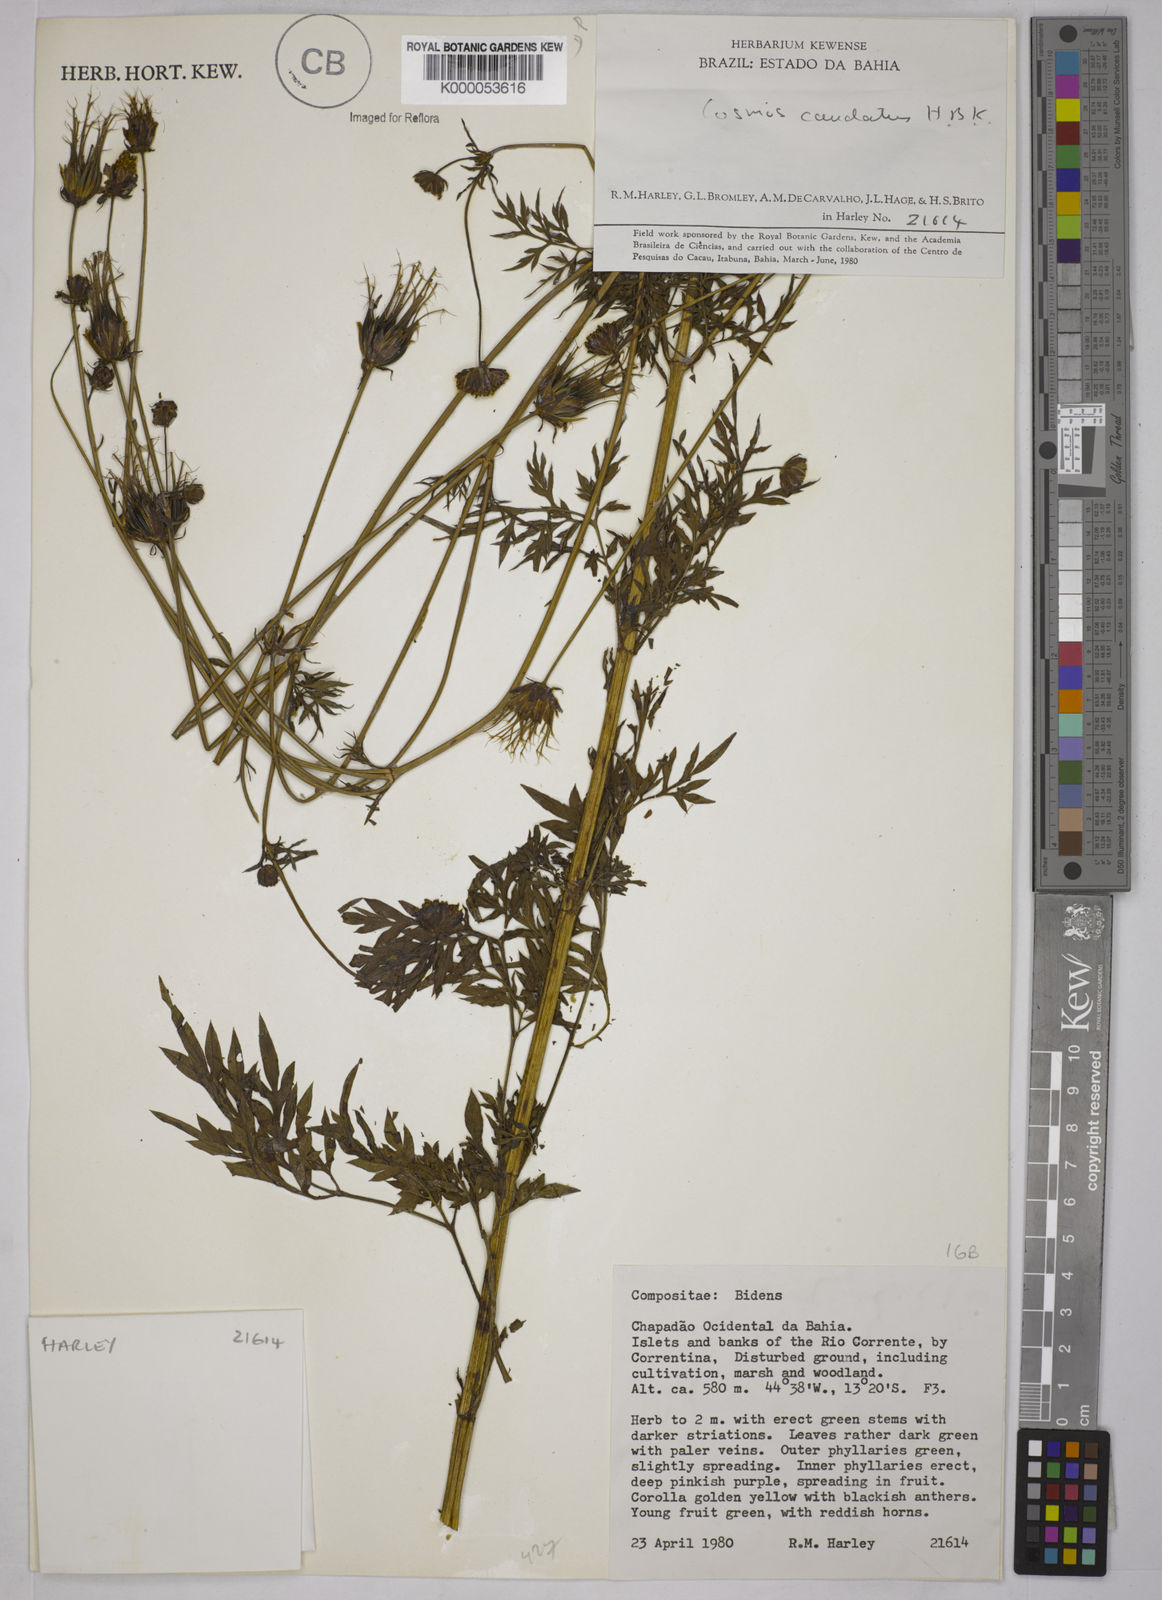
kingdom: Plantae
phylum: Tracheophyta
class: Magnoliopsida
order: Asterales
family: Asteraceae
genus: Cosmos
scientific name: Cosmos caudatus
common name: Wild cosmos
